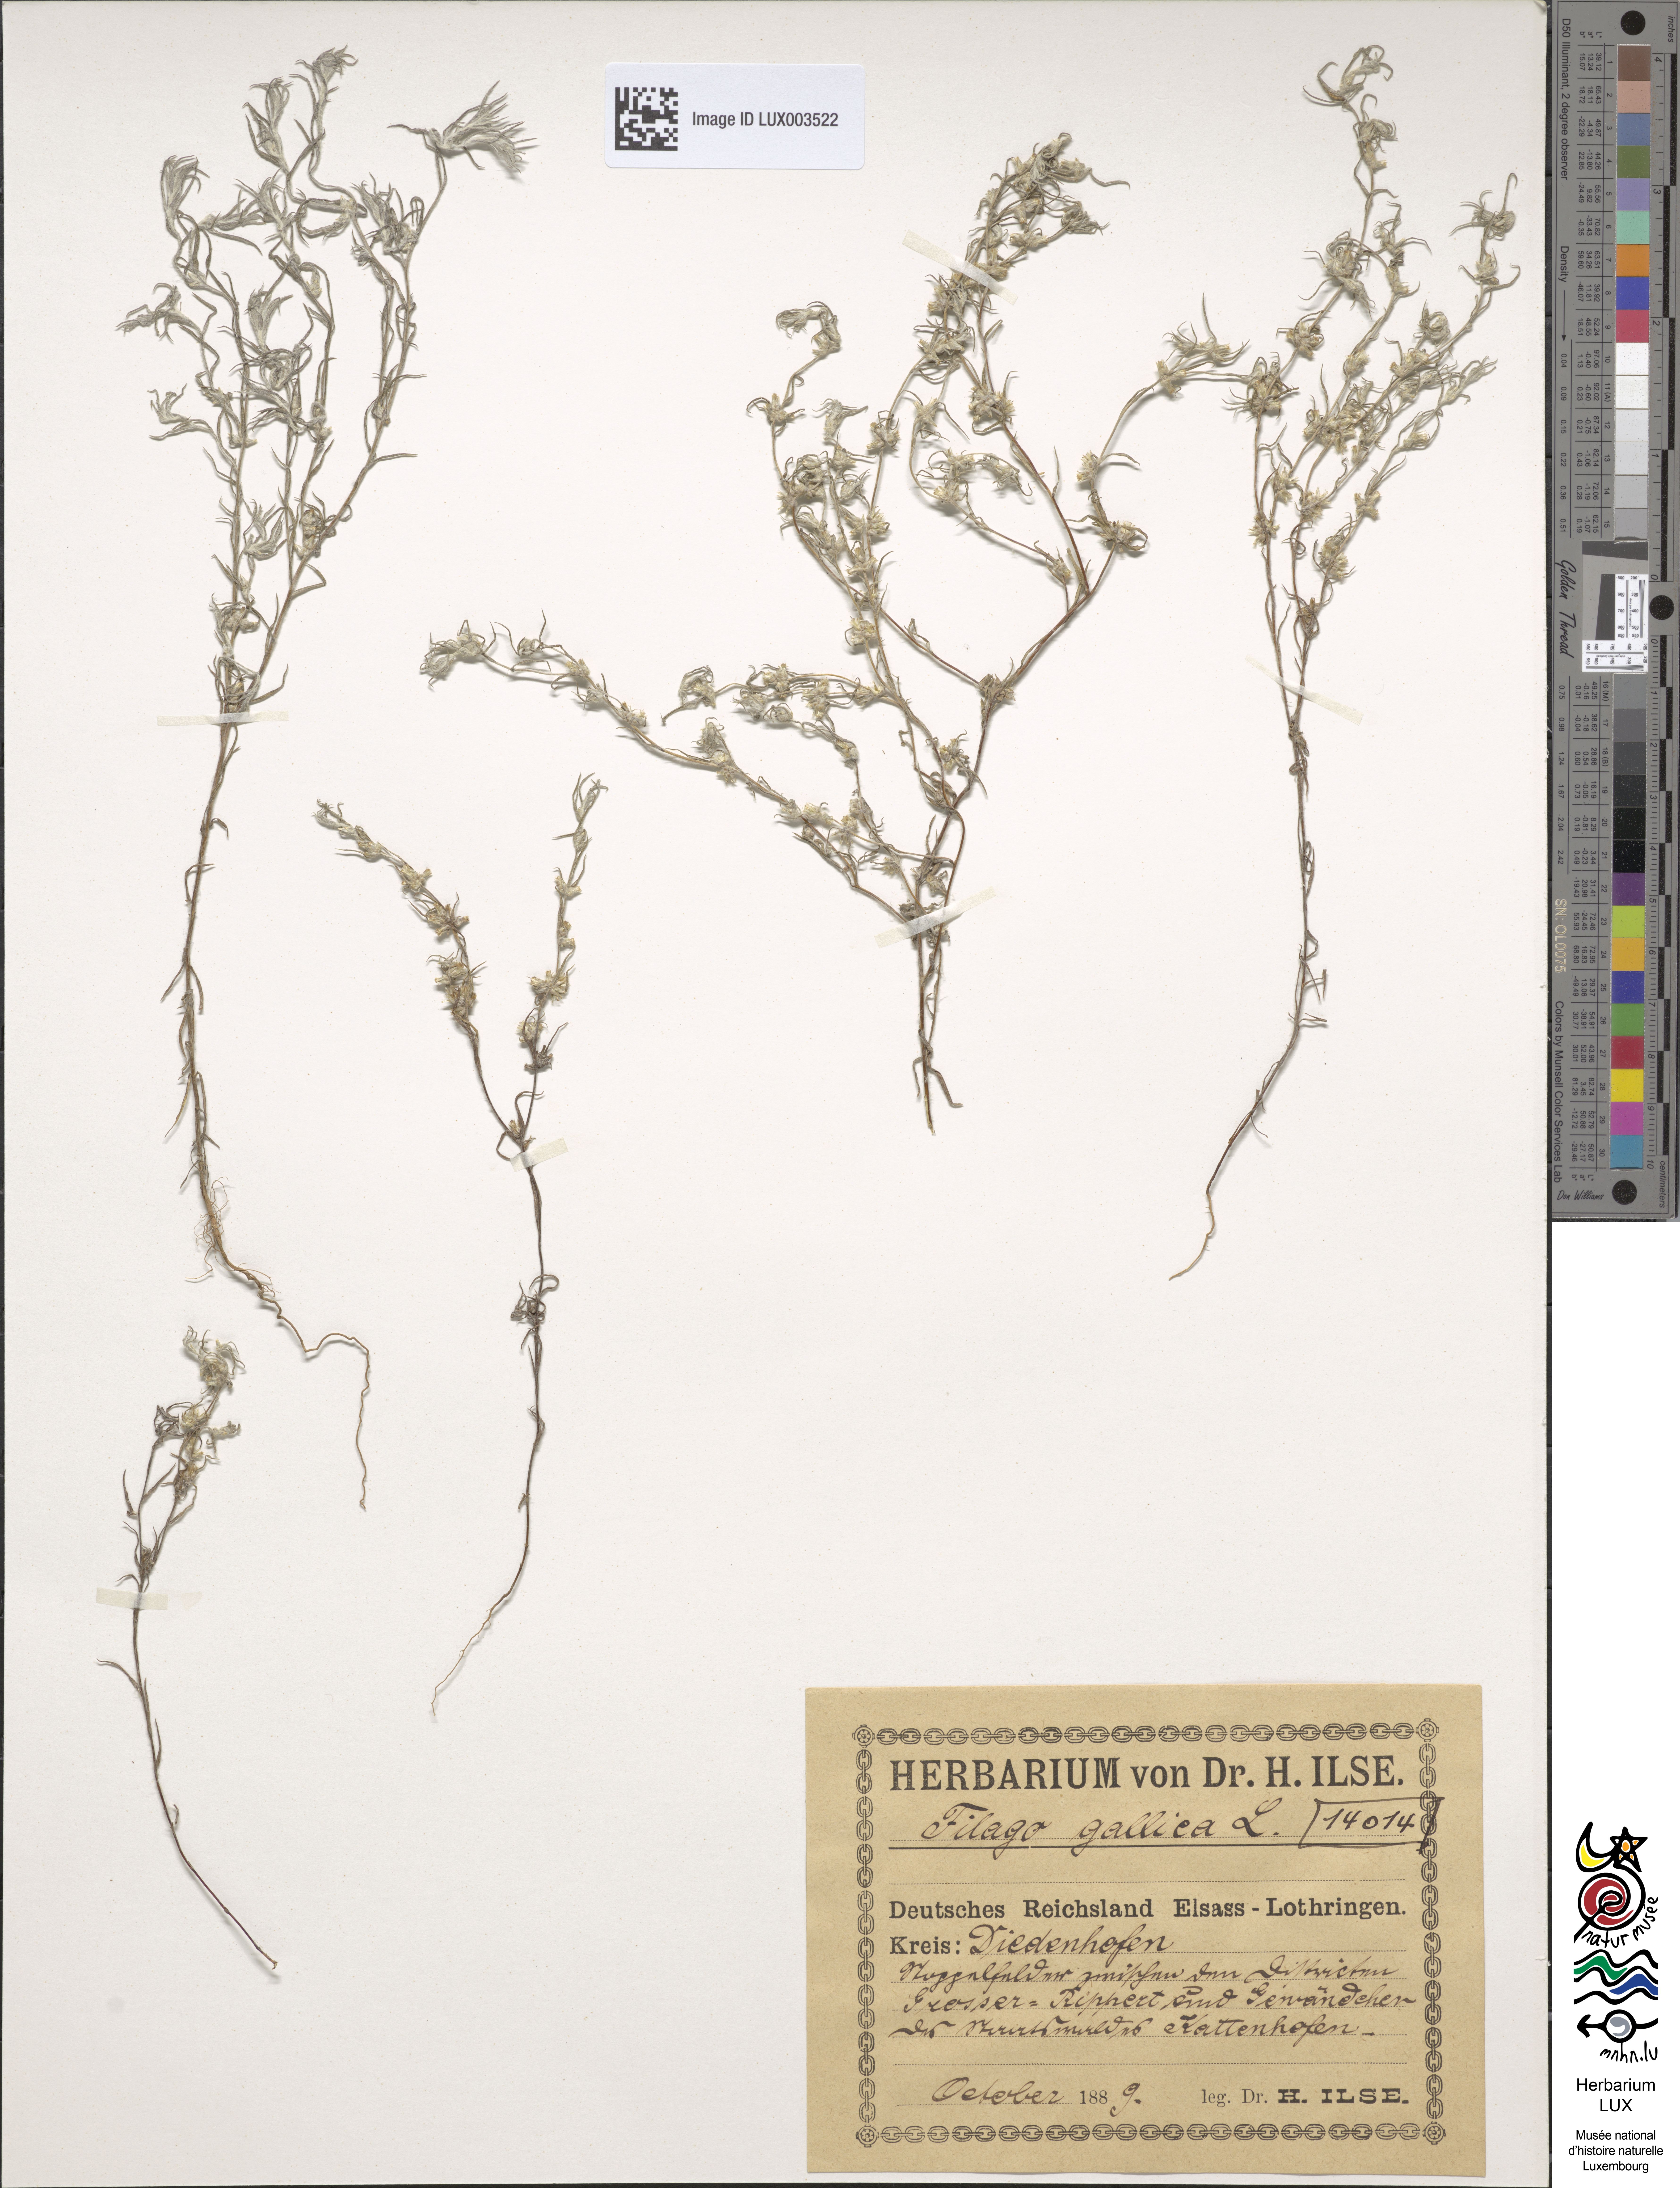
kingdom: Plantae
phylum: Tracheophyta
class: Magnoliopsida
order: Asterales
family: Asteraceae
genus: Logfia
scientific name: Logfia gallica
